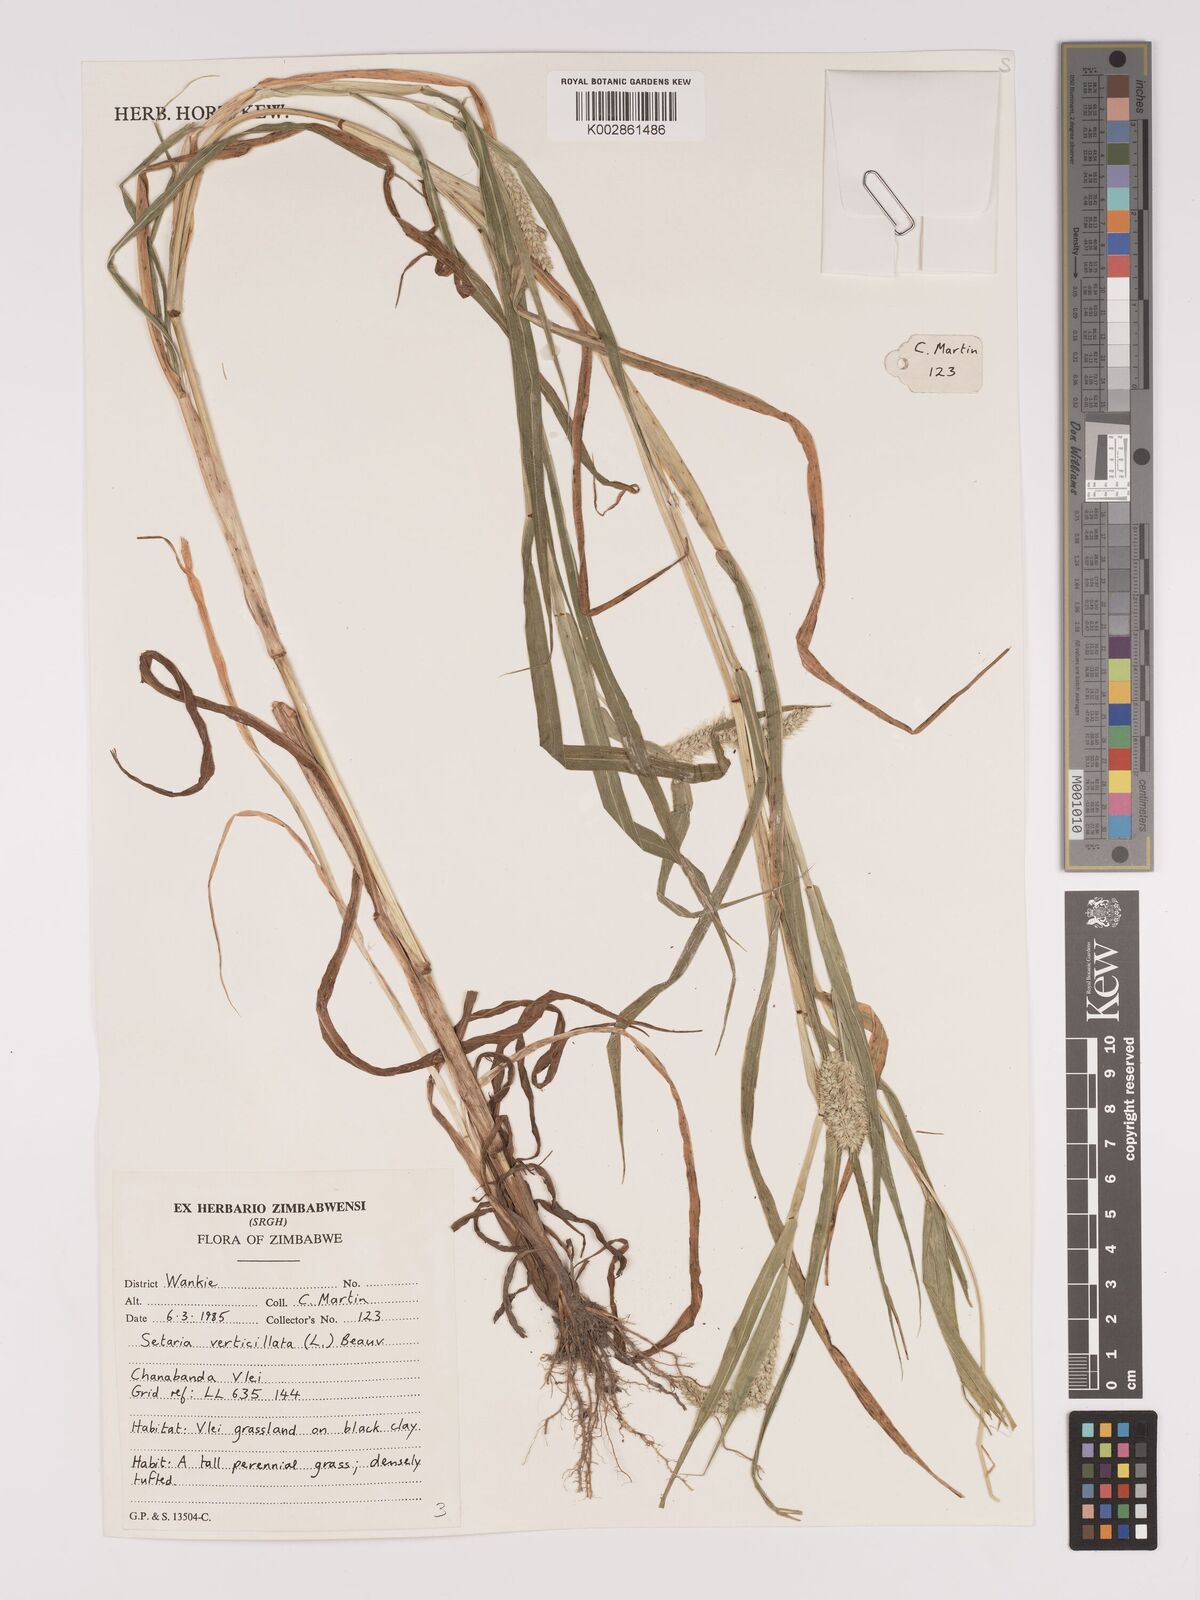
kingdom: Plantae
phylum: Tracheophyta
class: Liliopsida
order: Poales
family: Poaceae
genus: Setaria
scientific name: Setaria verticillata
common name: Hooked bristlegrass
